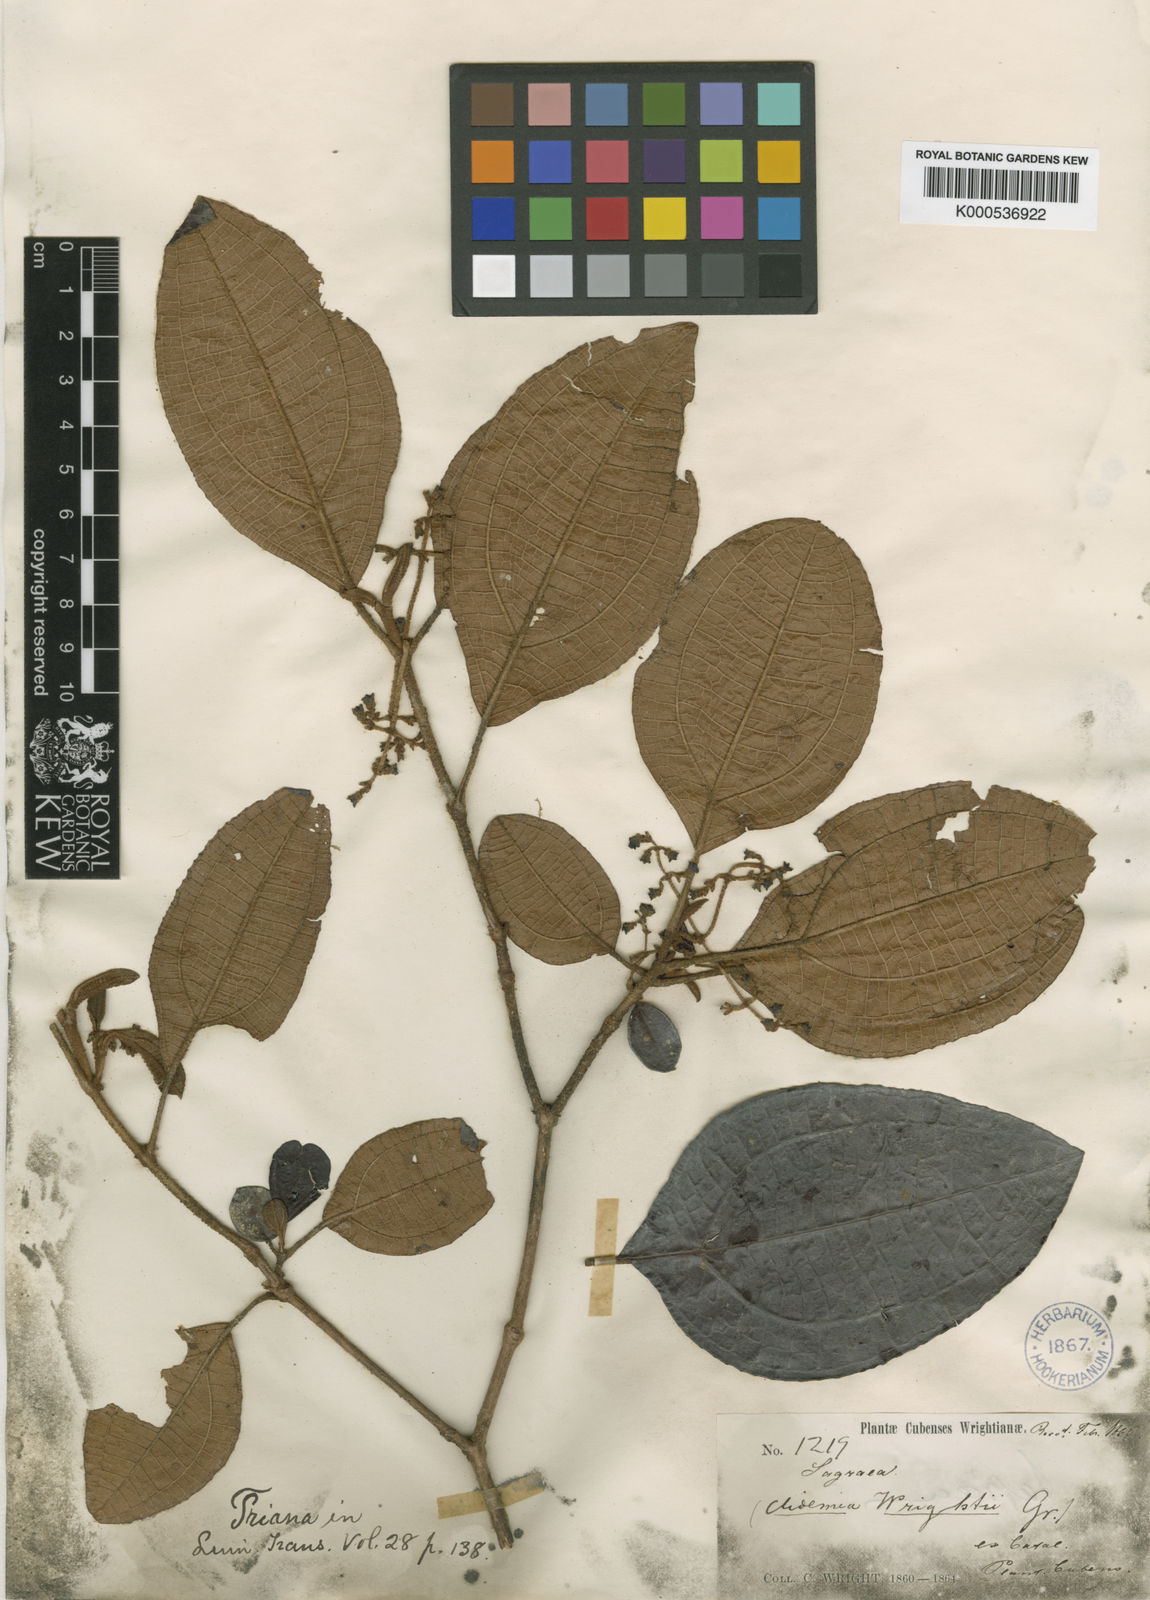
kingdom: Plantae
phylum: Tracheophyta
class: Magnoliopsida
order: Myrtales
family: Melastomataceae
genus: Miconia
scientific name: Miconia charleswrightii
